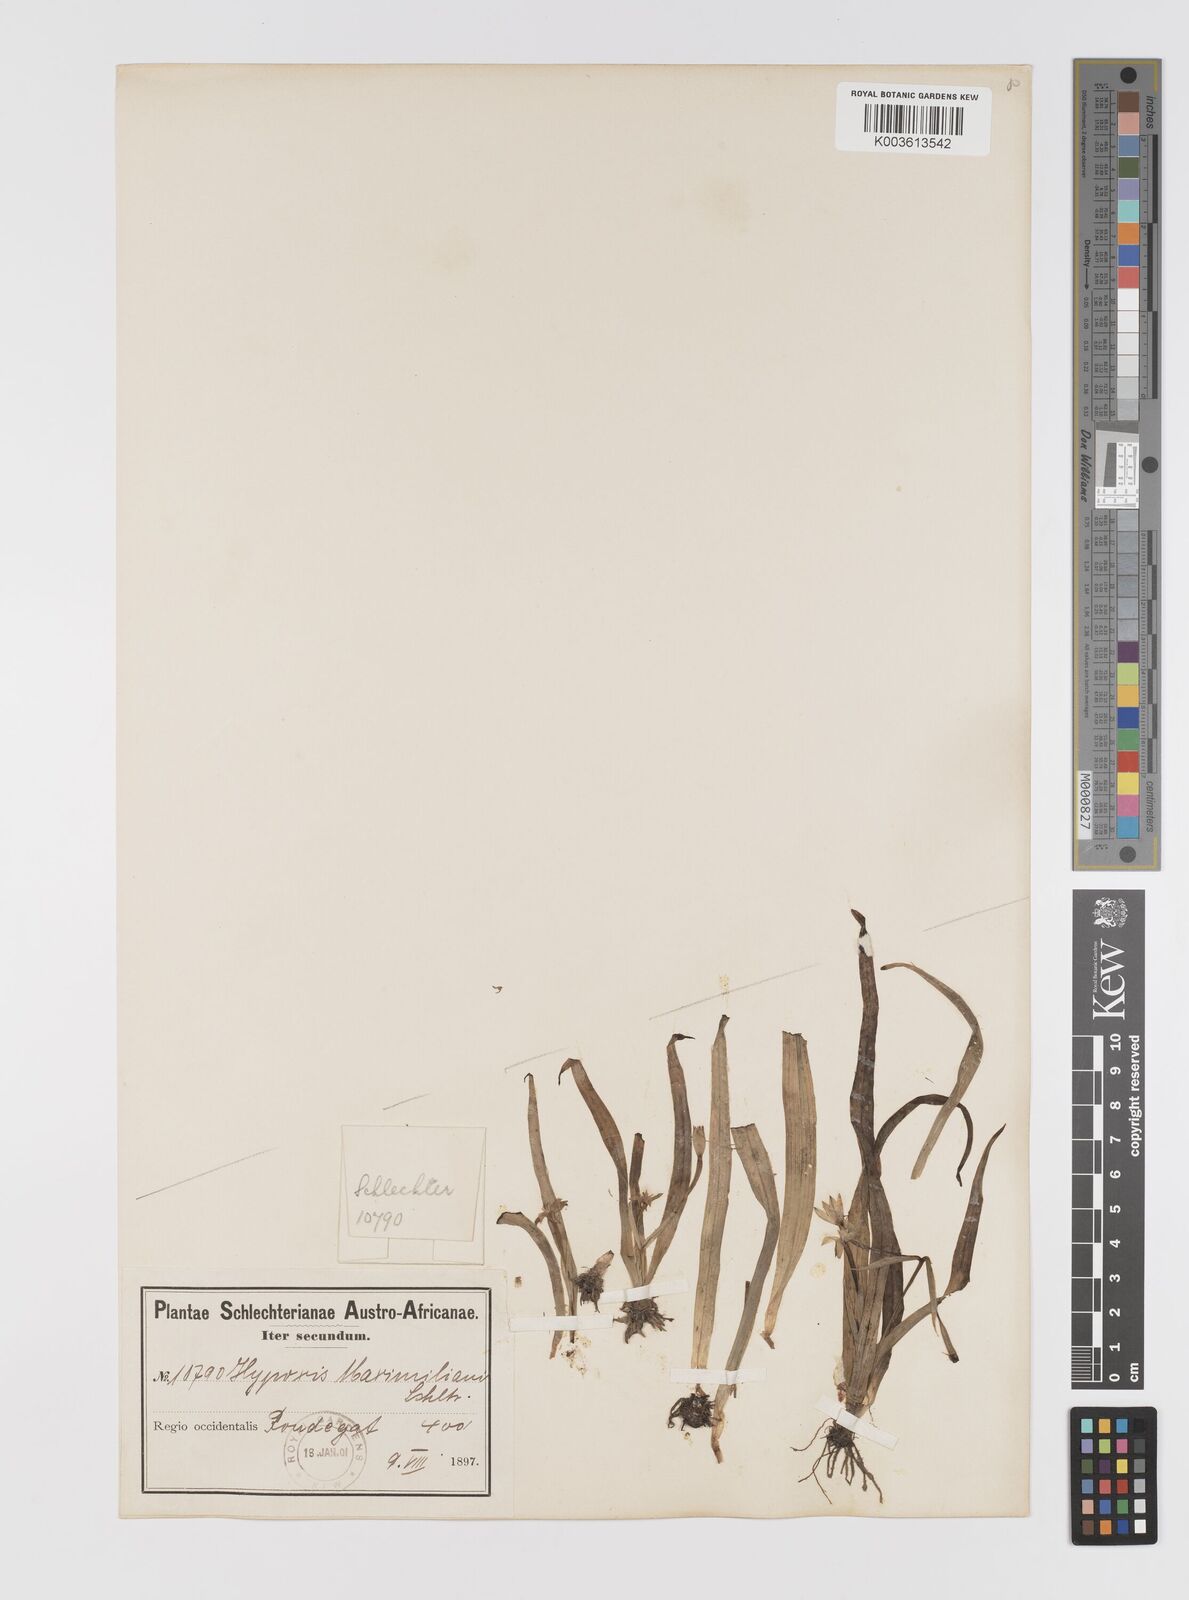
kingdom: Plantae
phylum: Tracheophyta
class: Liliopsida
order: Asparagales
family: Hypoxidaceae
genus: Pauridia
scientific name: Pauridia maximiliani
